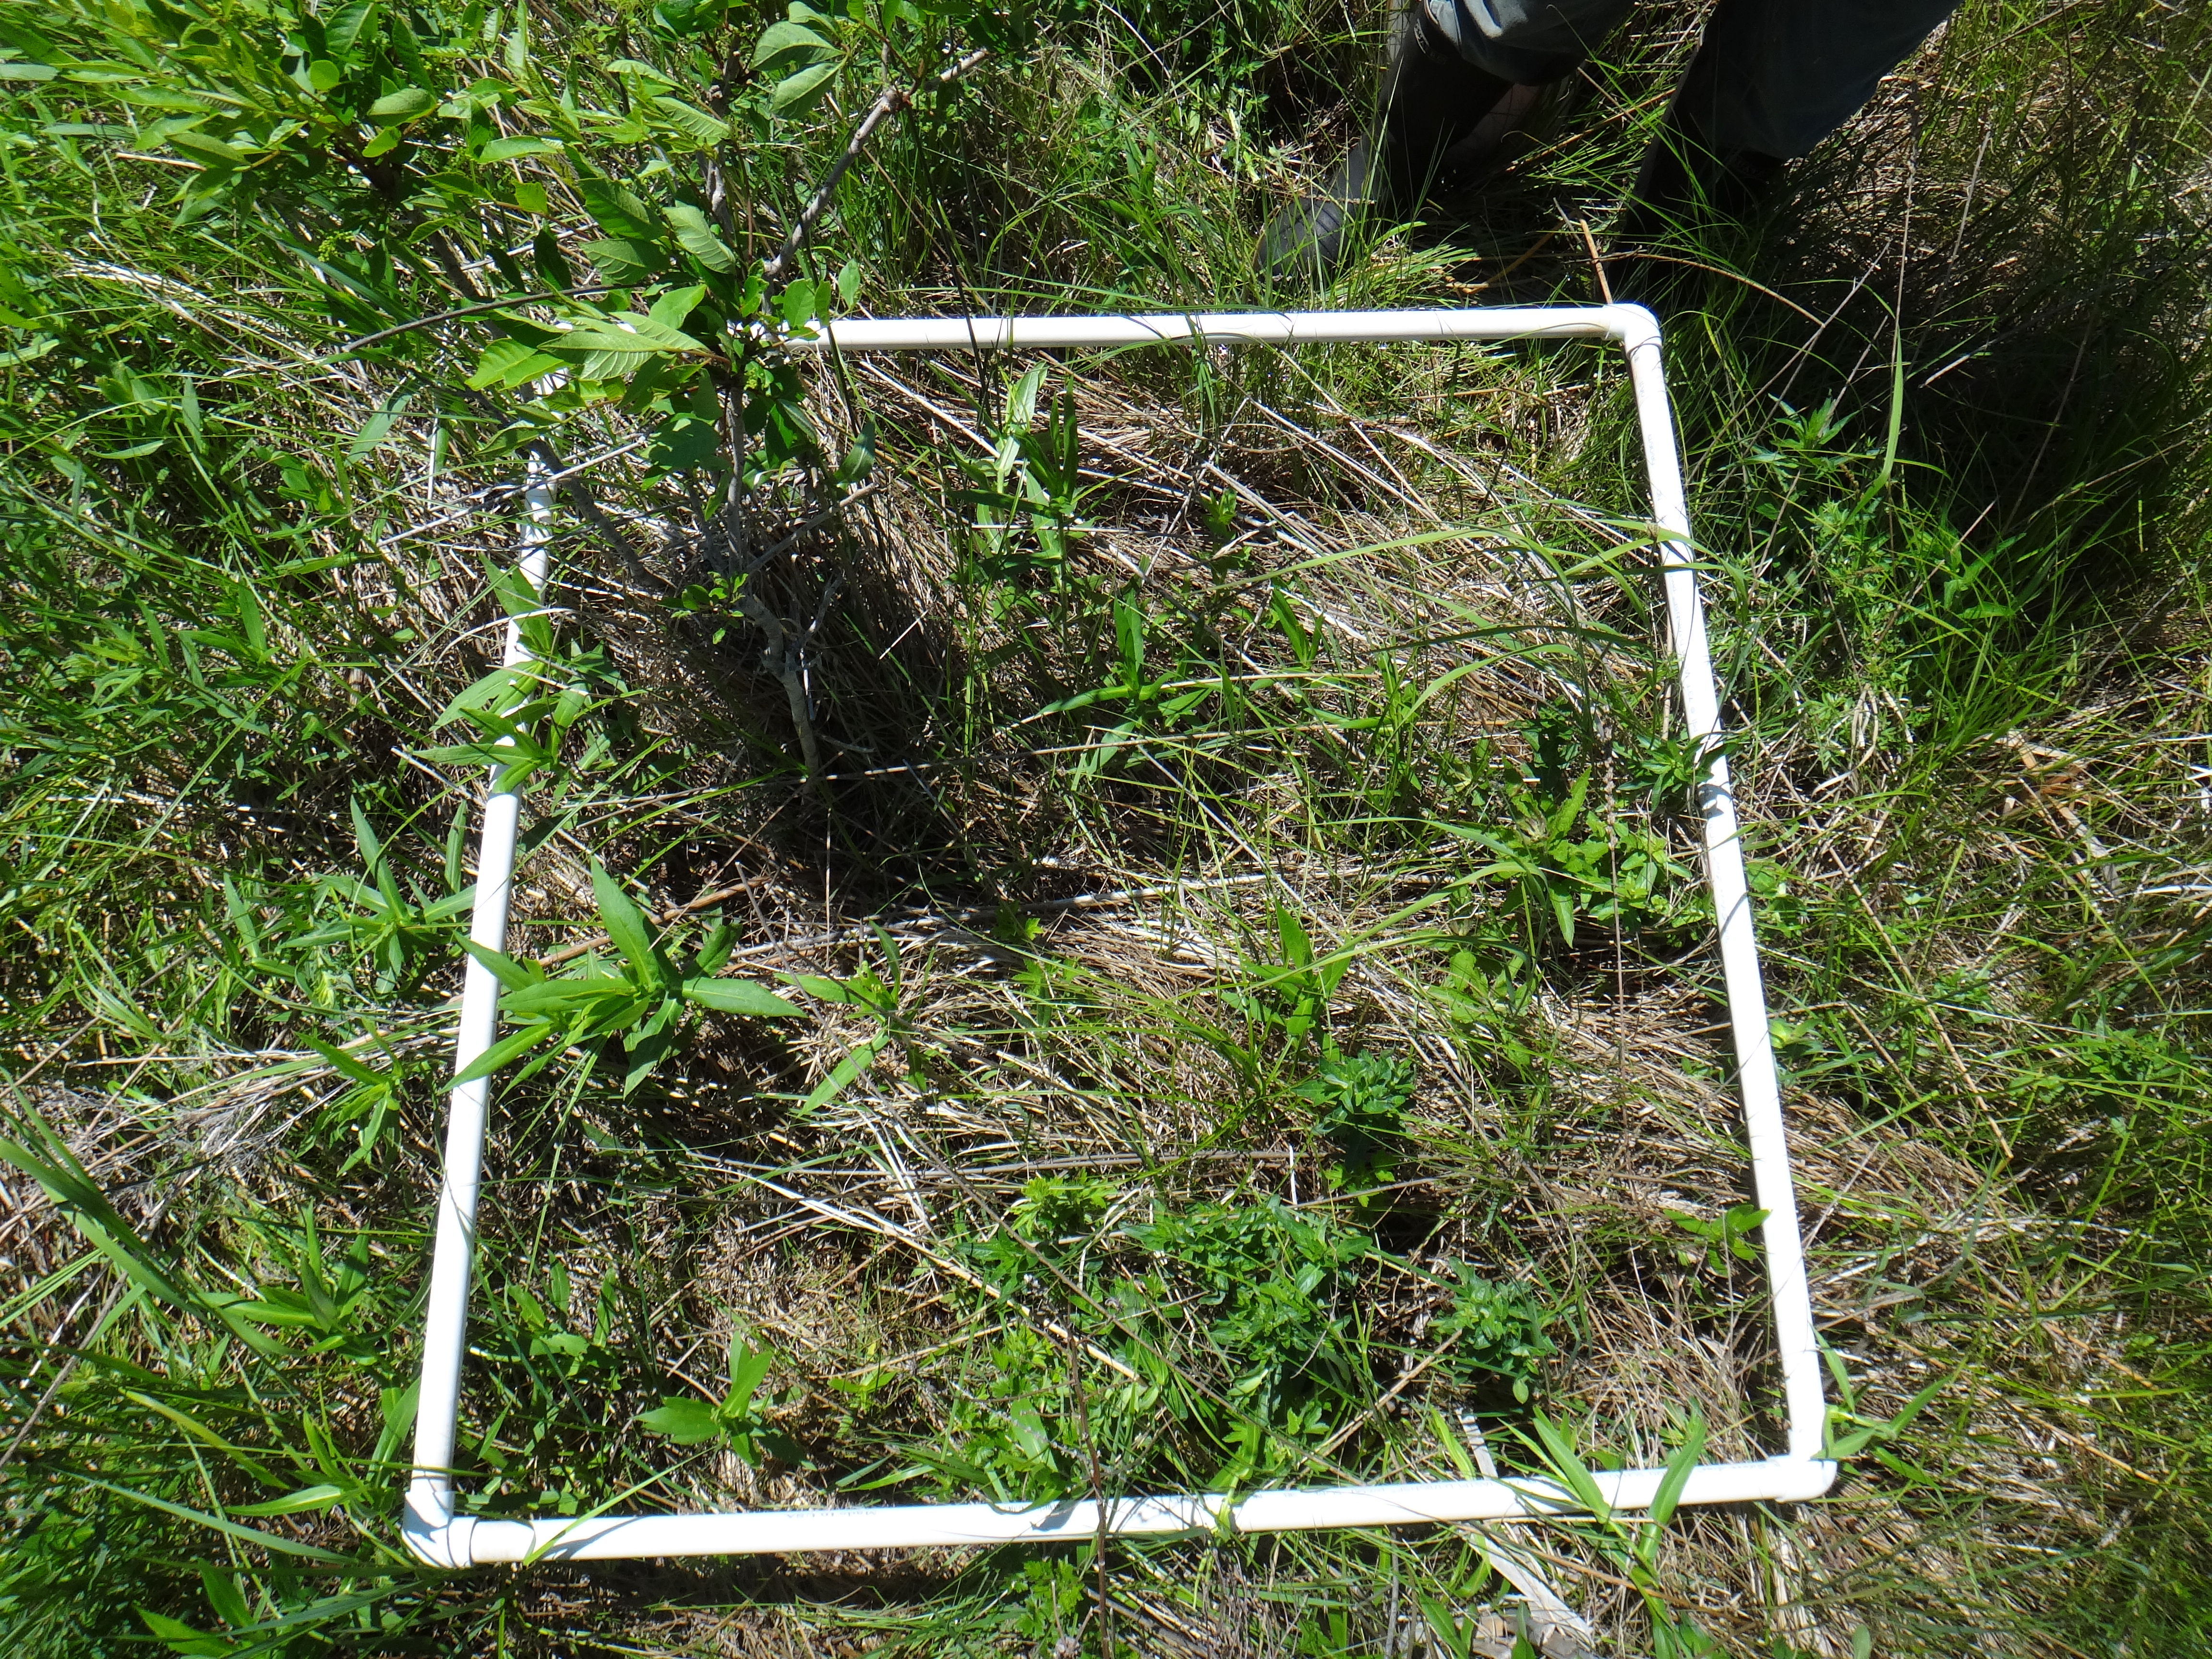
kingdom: Plantae
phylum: Tracheophyta
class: Magnoliopsida
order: Lamiales
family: Lamiaceae
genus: Lycopus
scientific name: Lycopus uniflorus
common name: Northern bugleweed
